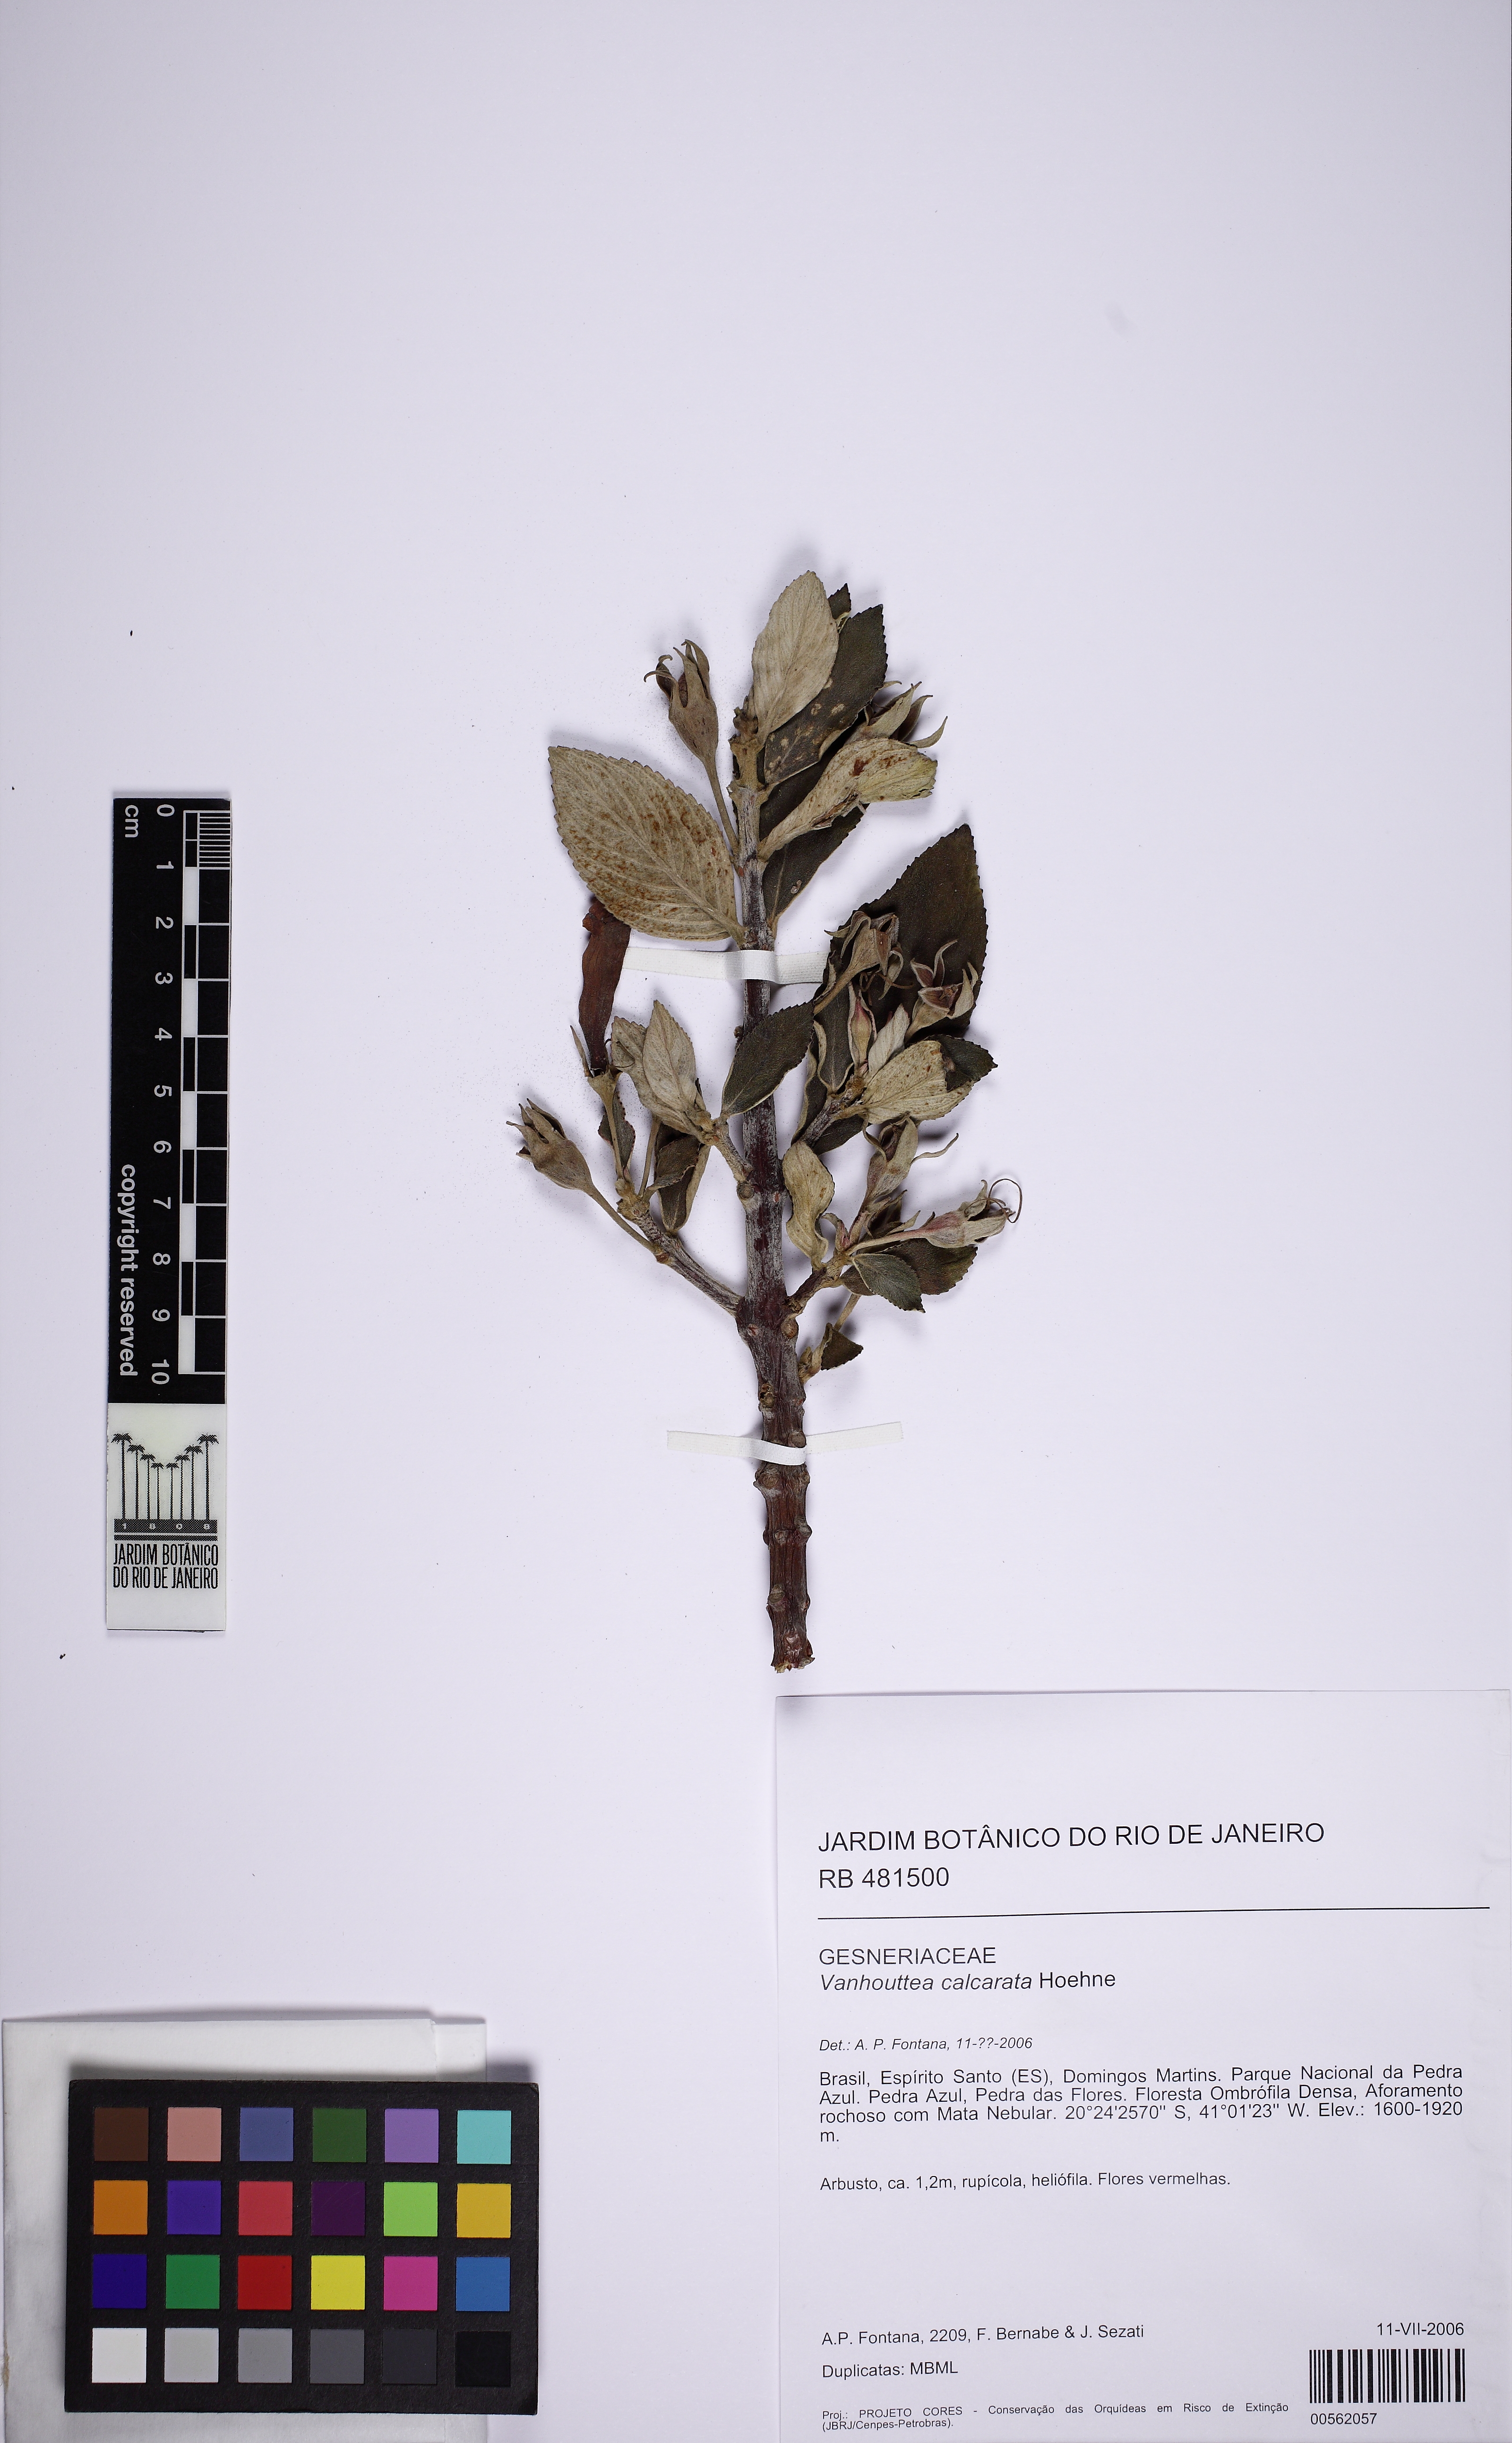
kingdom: Plantae
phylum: Tracheophyta
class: Magnoliopsida
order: Lamiales
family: Gesneriaceae
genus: Vanhouttea
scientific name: Vanhouttea calcarata
